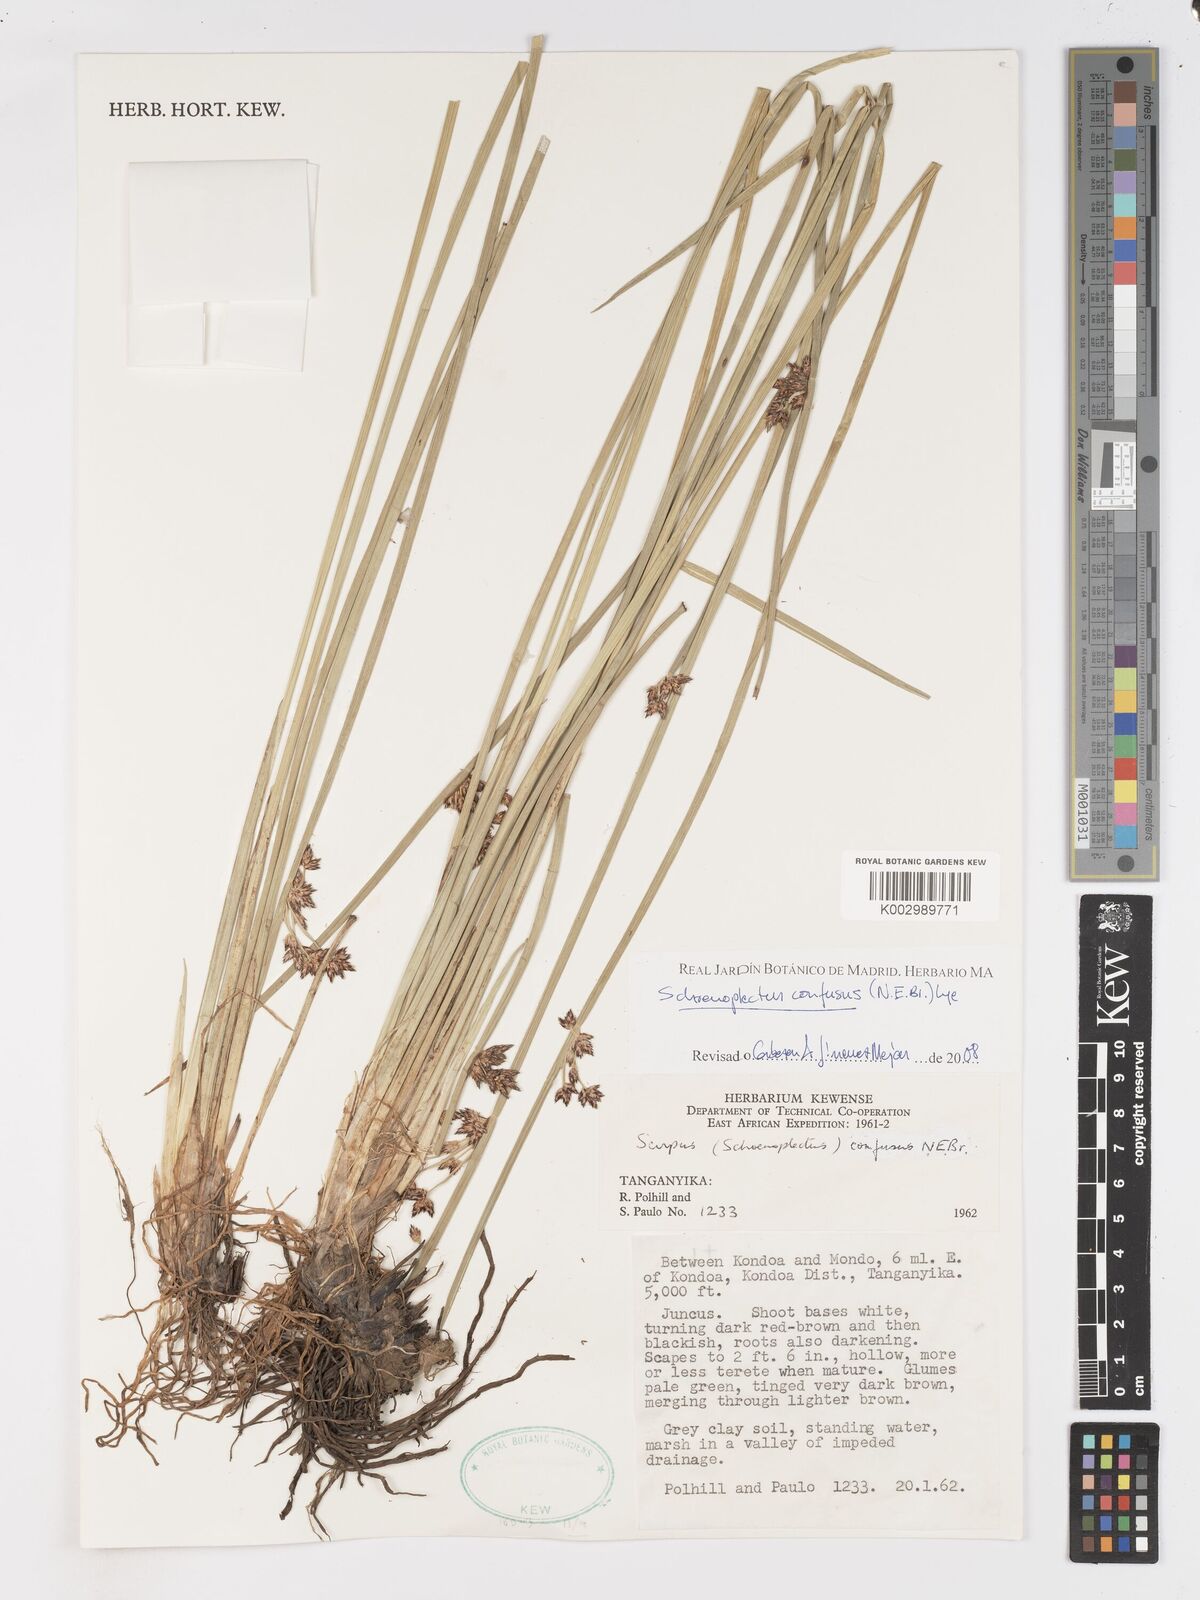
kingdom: Plantae
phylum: Tracheophyta
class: Liliopsida
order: Poales
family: Cyperaceae
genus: Schoenoplectiella
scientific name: Schoenoplectiella confusa
